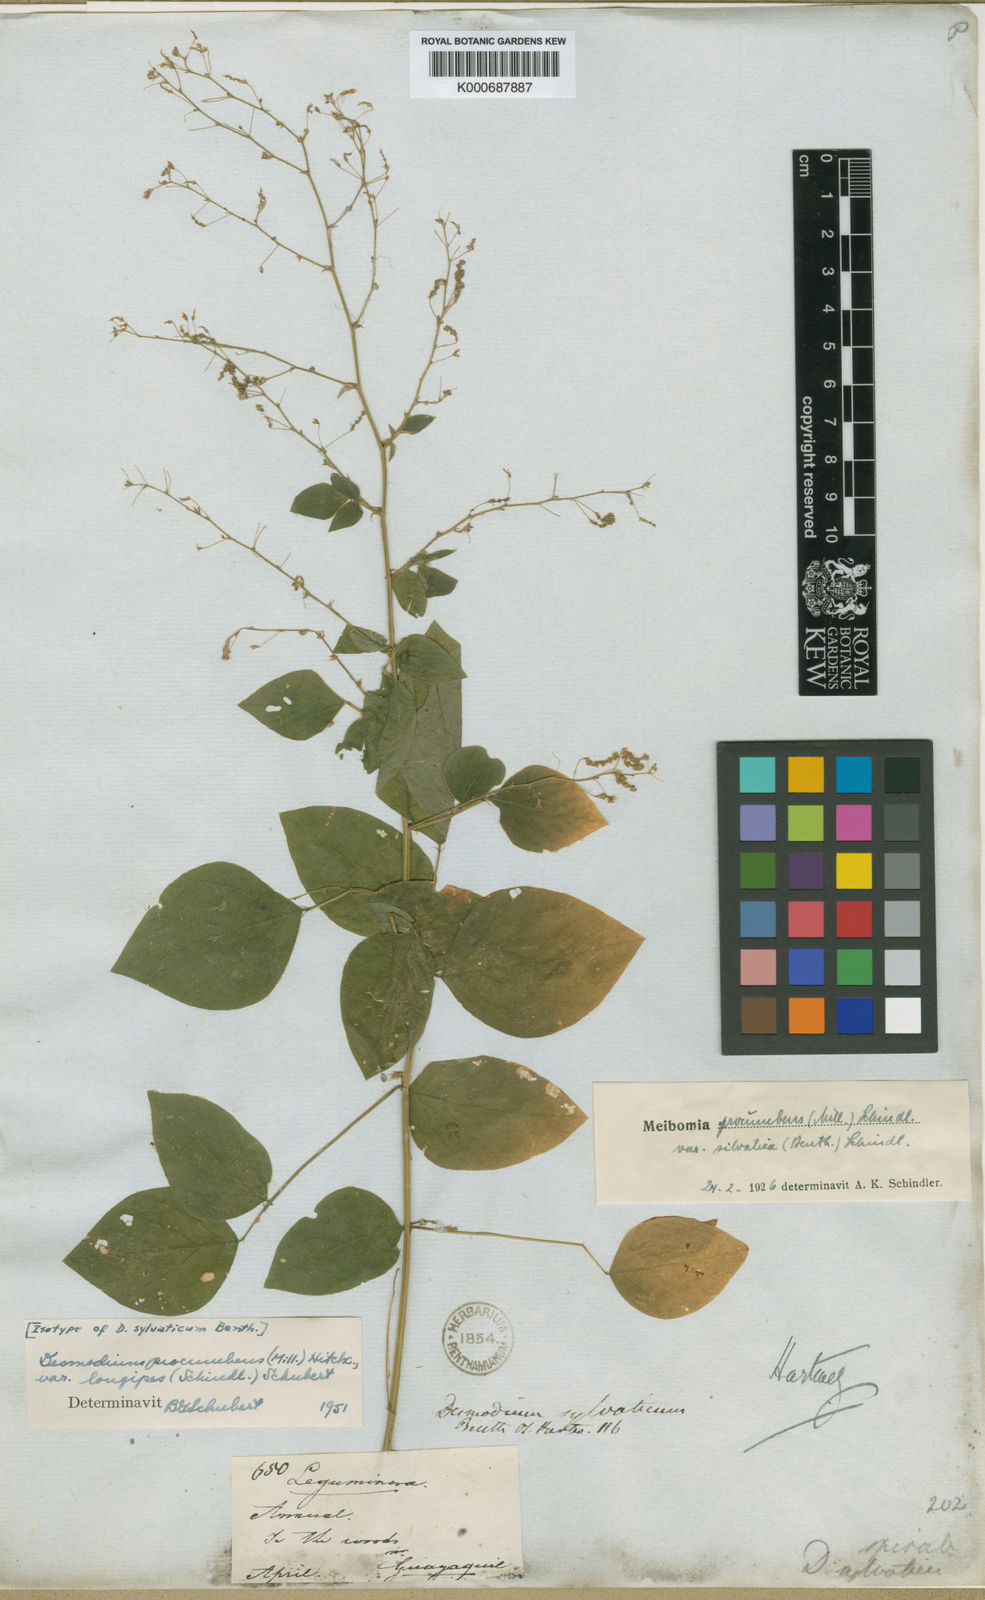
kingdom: Plantae
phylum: Tracheophyta
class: Magnoliopsida
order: Fabales
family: Fabaceae
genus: Desmodium
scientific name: Desmodium procumbens
